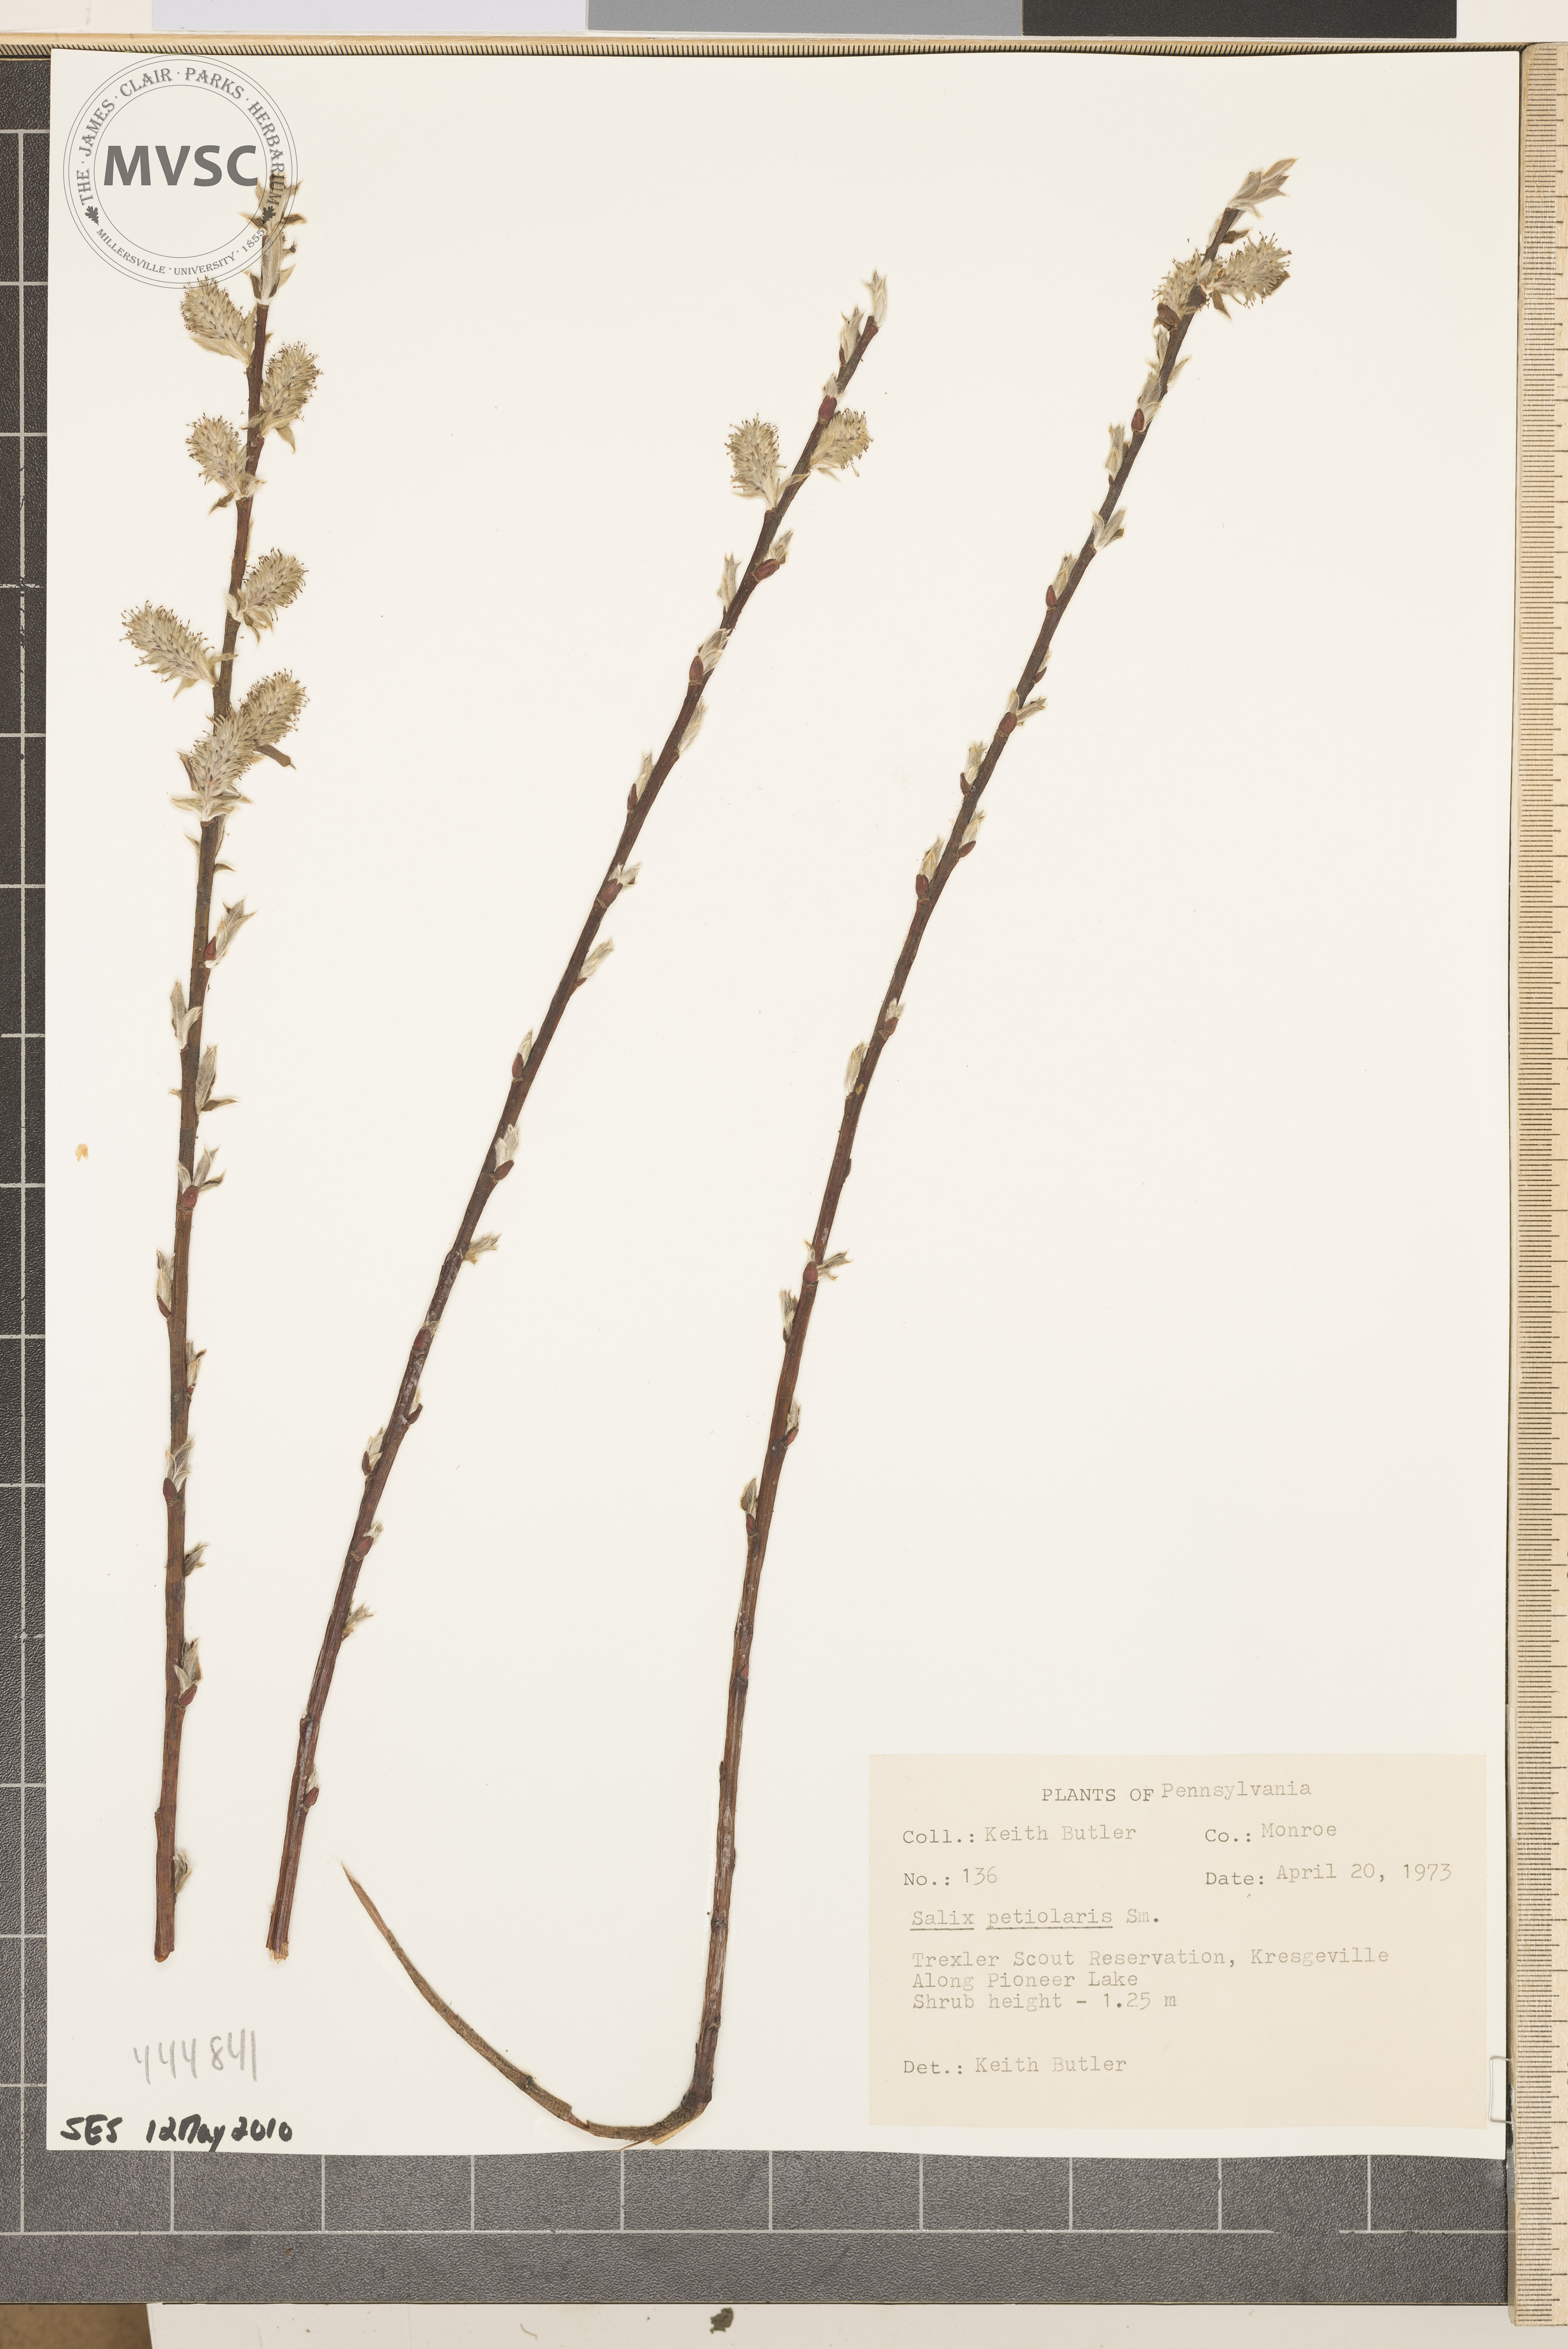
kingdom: Plantae
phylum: Tracheophyta
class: Magnoliopsida
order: Malpighiales
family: Salicaceae
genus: Salix
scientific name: Salix petiolaris
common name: Slender willow
